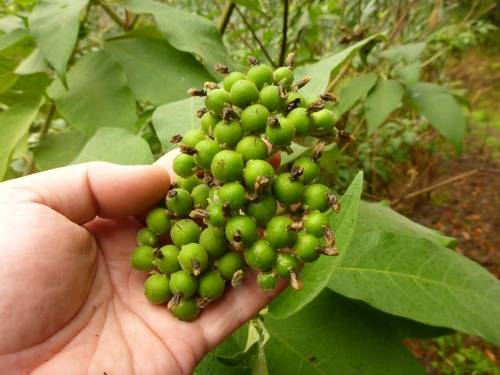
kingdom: Plantae
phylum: Tracheophyta
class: Magnoliopsida
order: Solanales
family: Solanaceae
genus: Solanum
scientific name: Solanum mauritianum
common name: Earleaf nightshade
